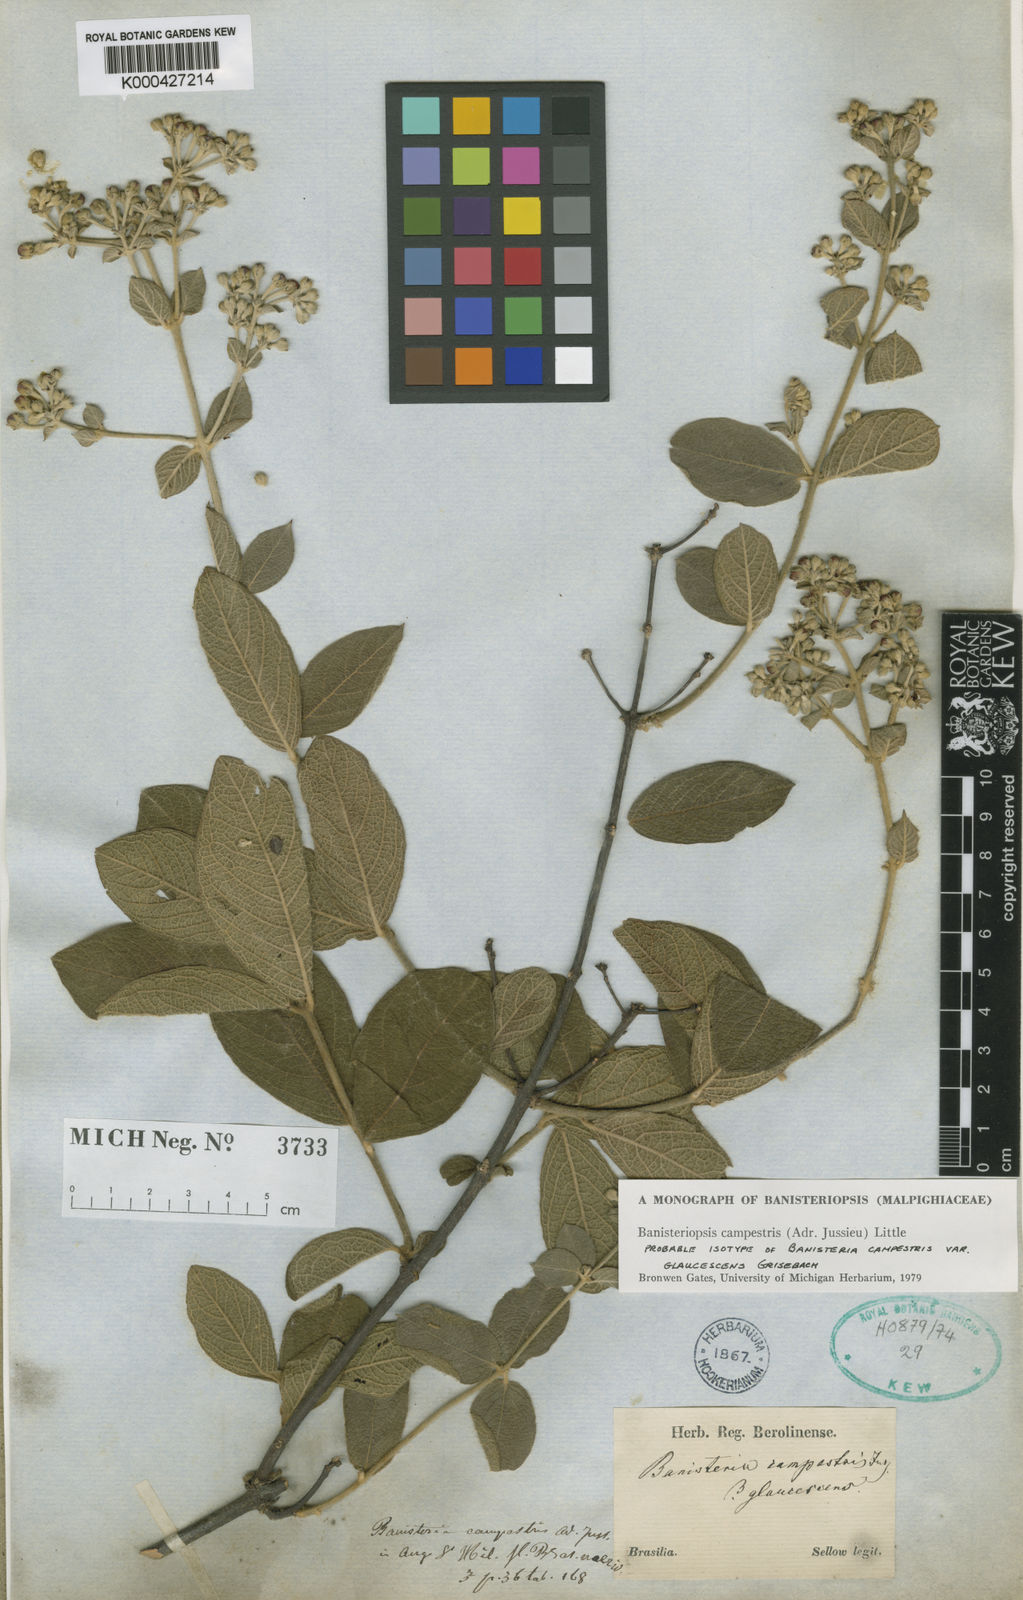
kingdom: Plantae
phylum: Tracheophyta
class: Magnoliopsida
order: Malpighiales
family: Malpighiaceae
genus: Banisteriopsis
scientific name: Banisteriopsis campestris
